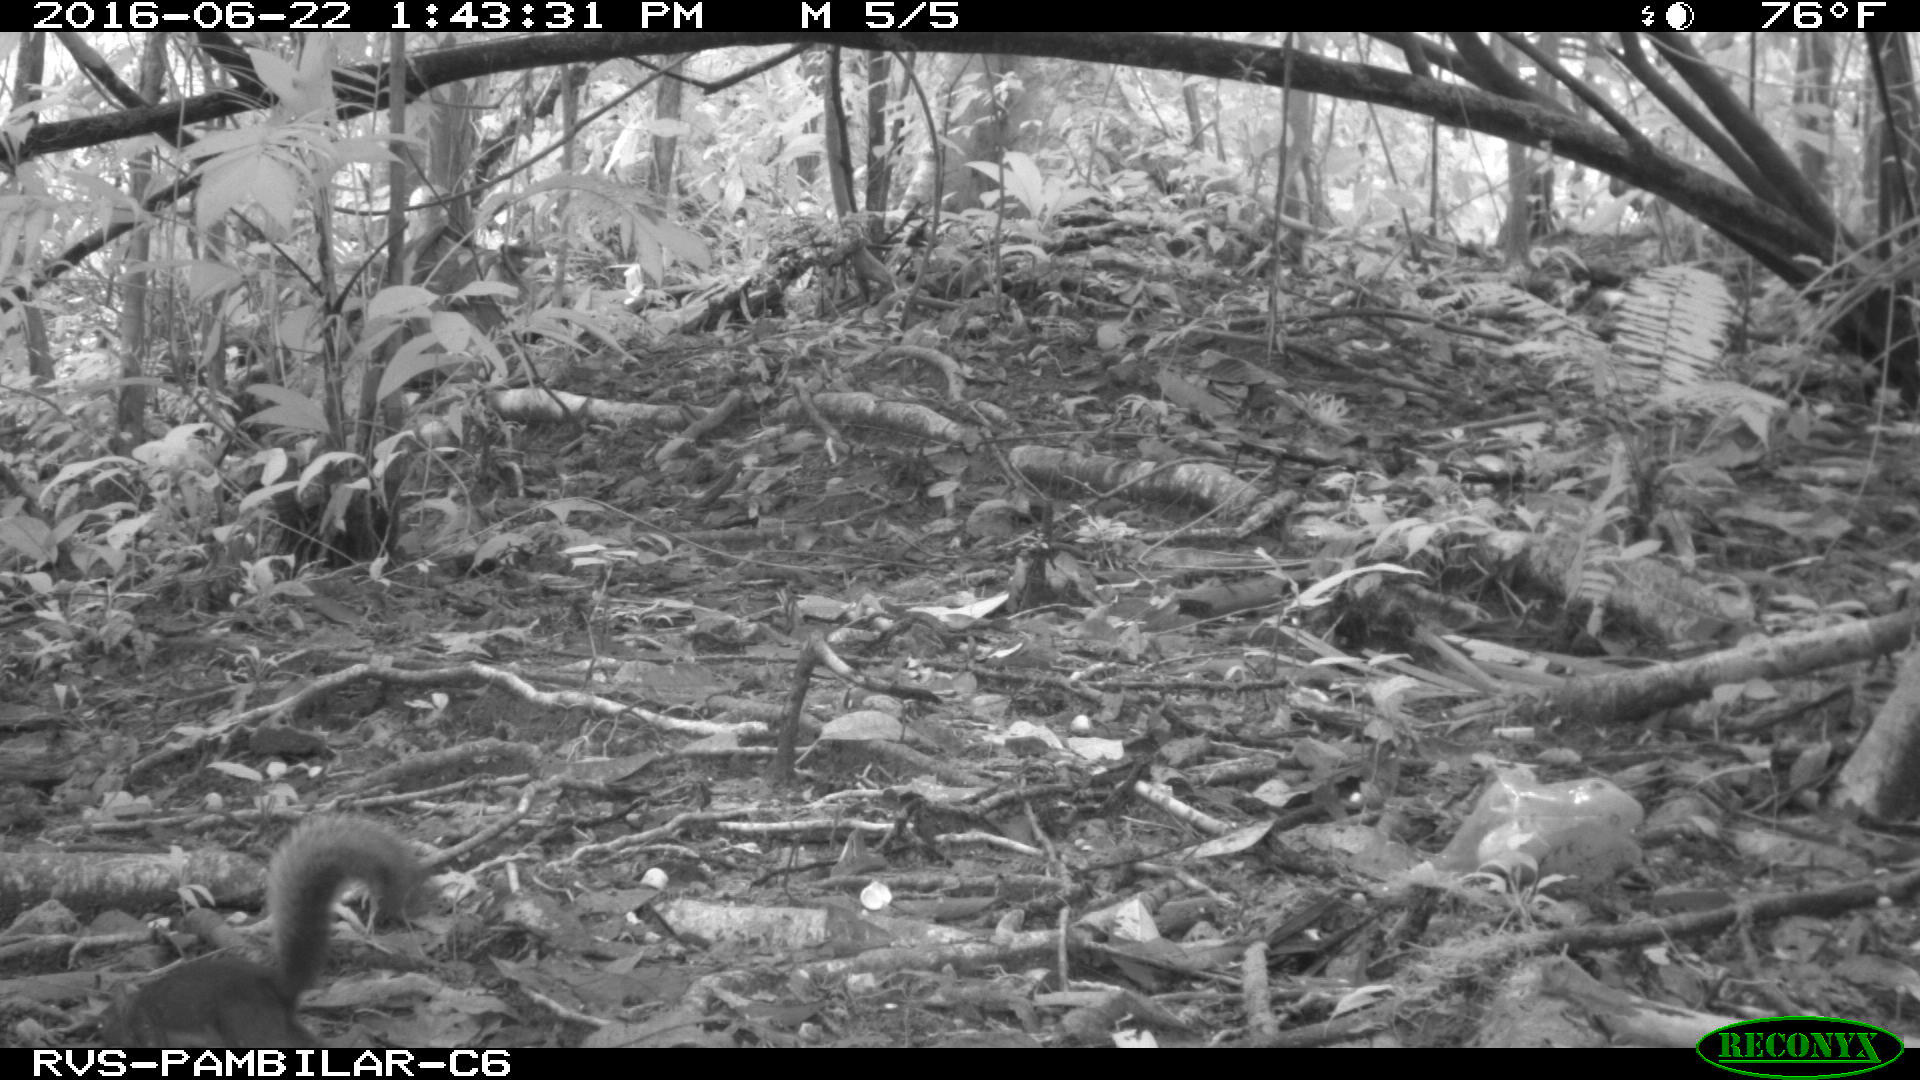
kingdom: Animalia
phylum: Chordata
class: Mammalia
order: Rodentia
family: Sciuridae
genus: Sciurus
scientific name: Sciurus granatensis
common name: Red-tailed squirrel
